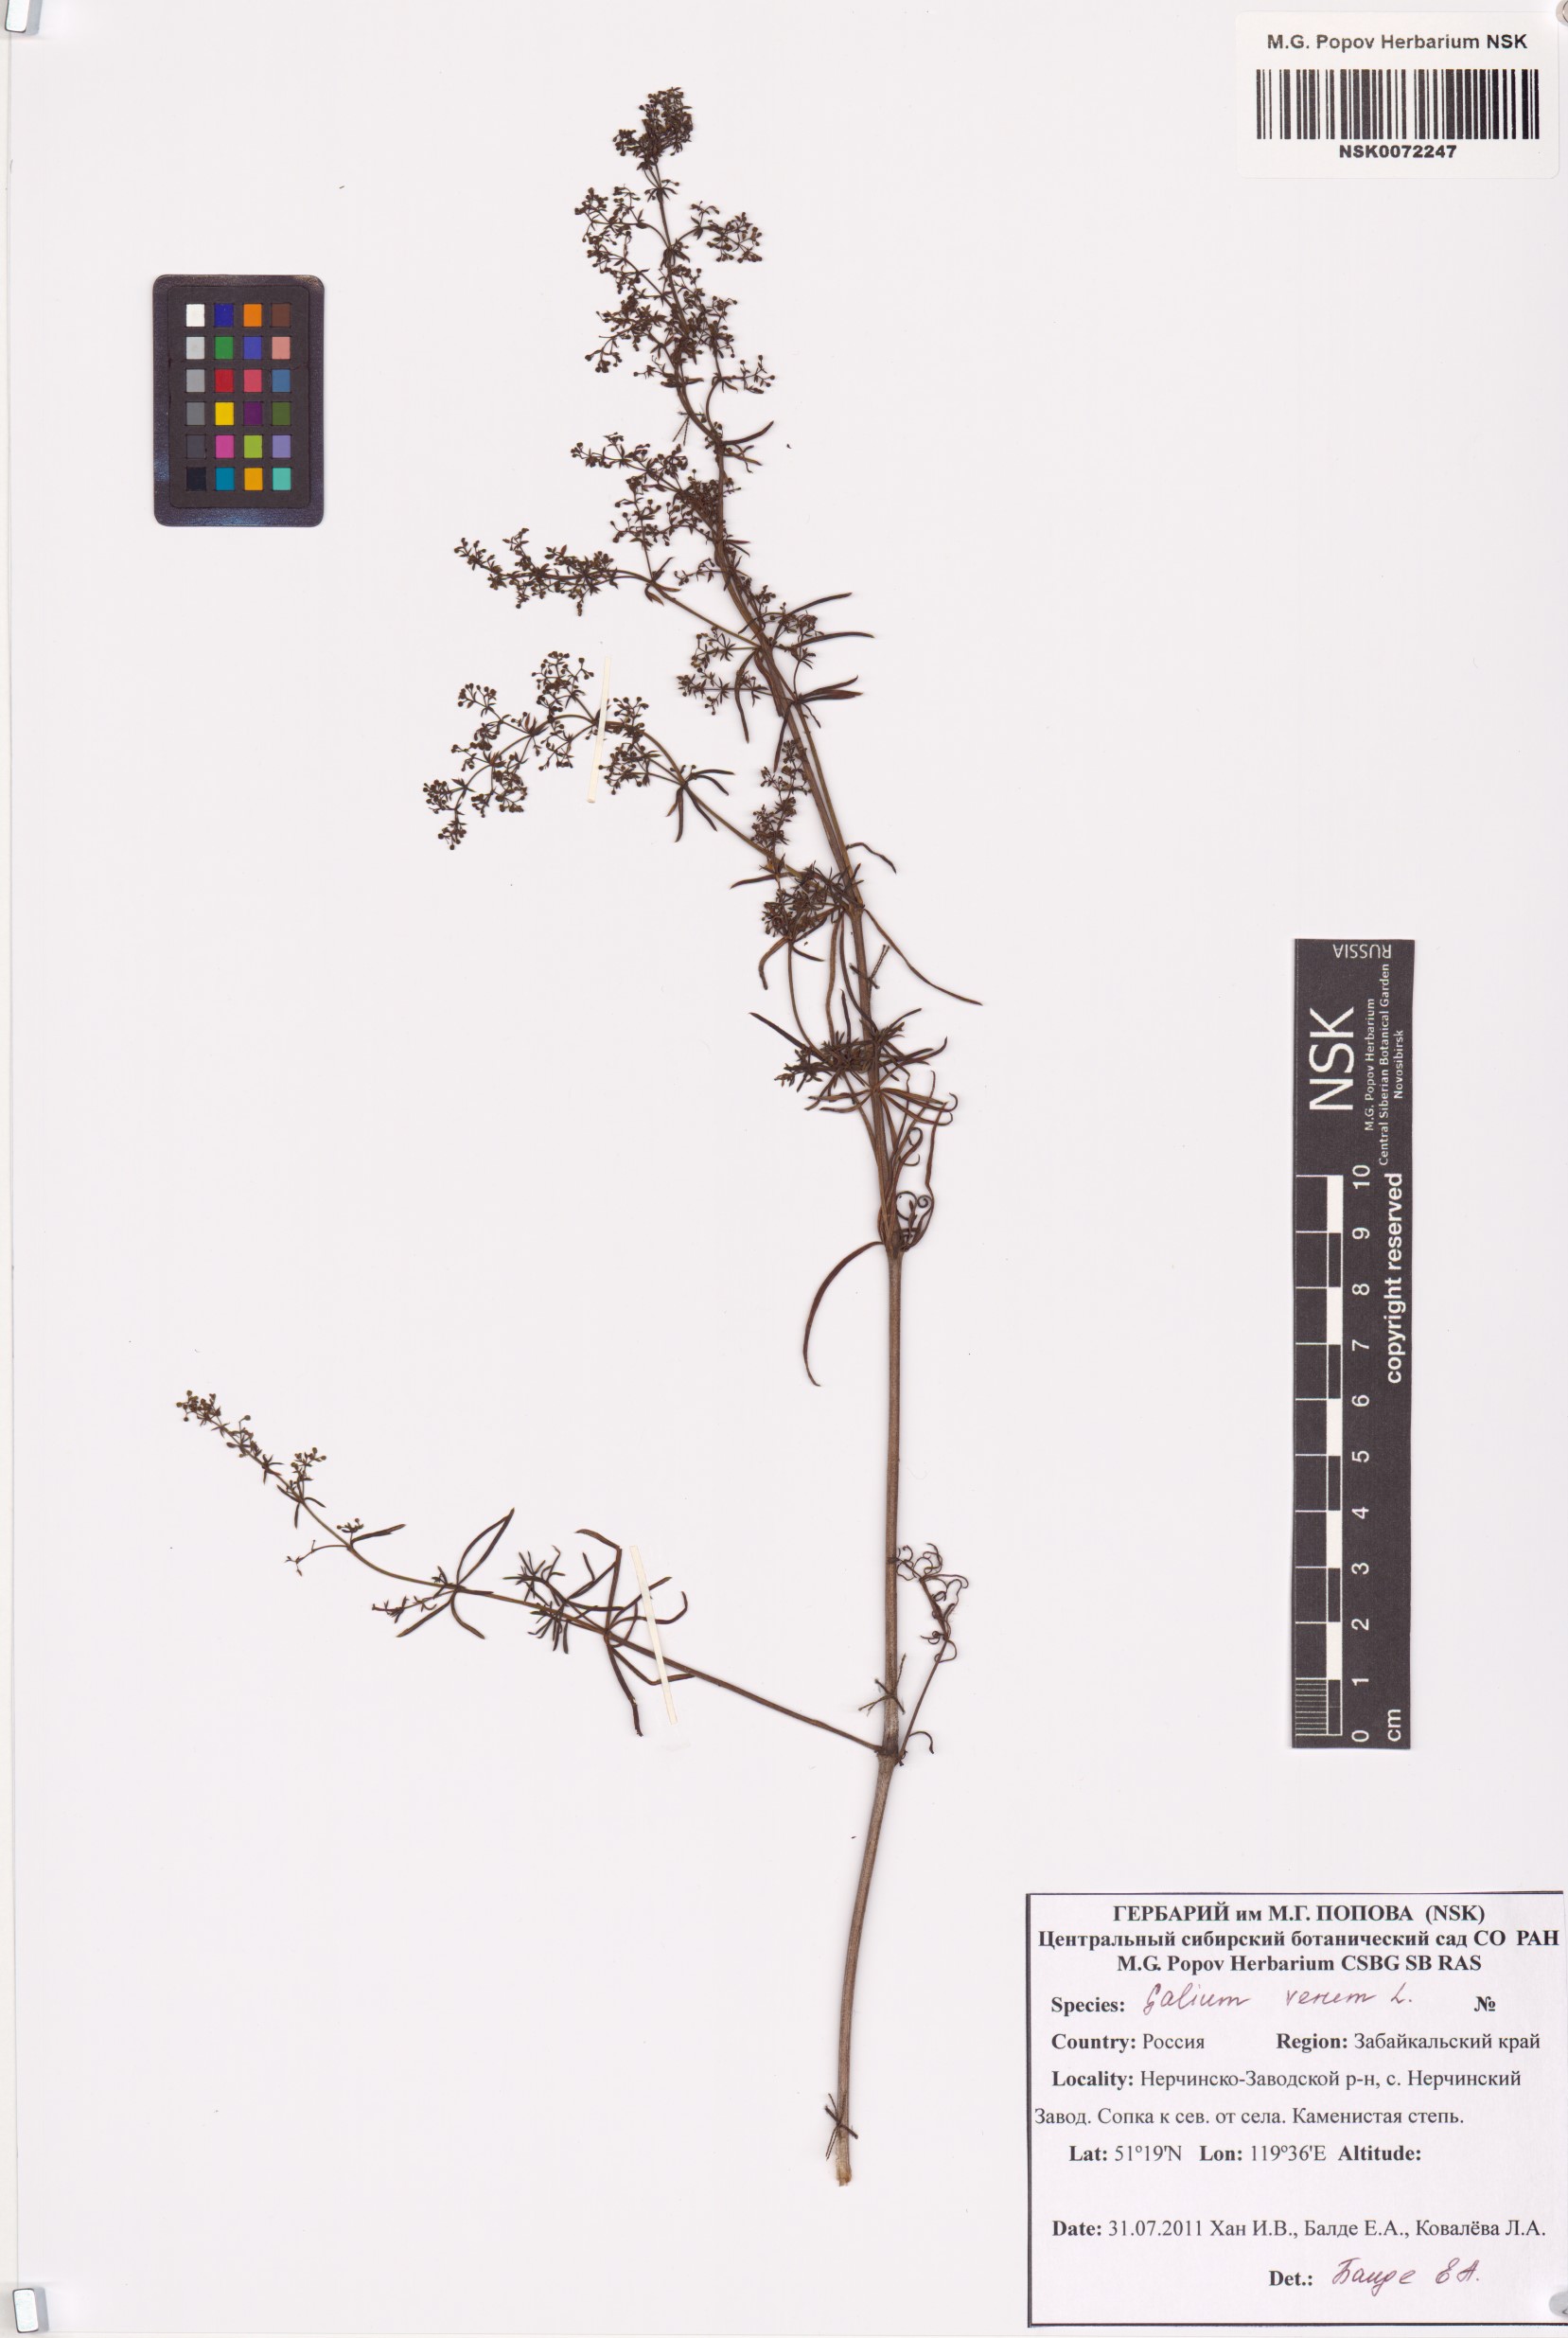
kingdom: Plantae
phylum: Tracheophyta
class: Magnoliopsida
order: Gentianales
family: Rubiaceae
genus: Galium
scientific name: Galium verum
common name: Lady's bedstraw
